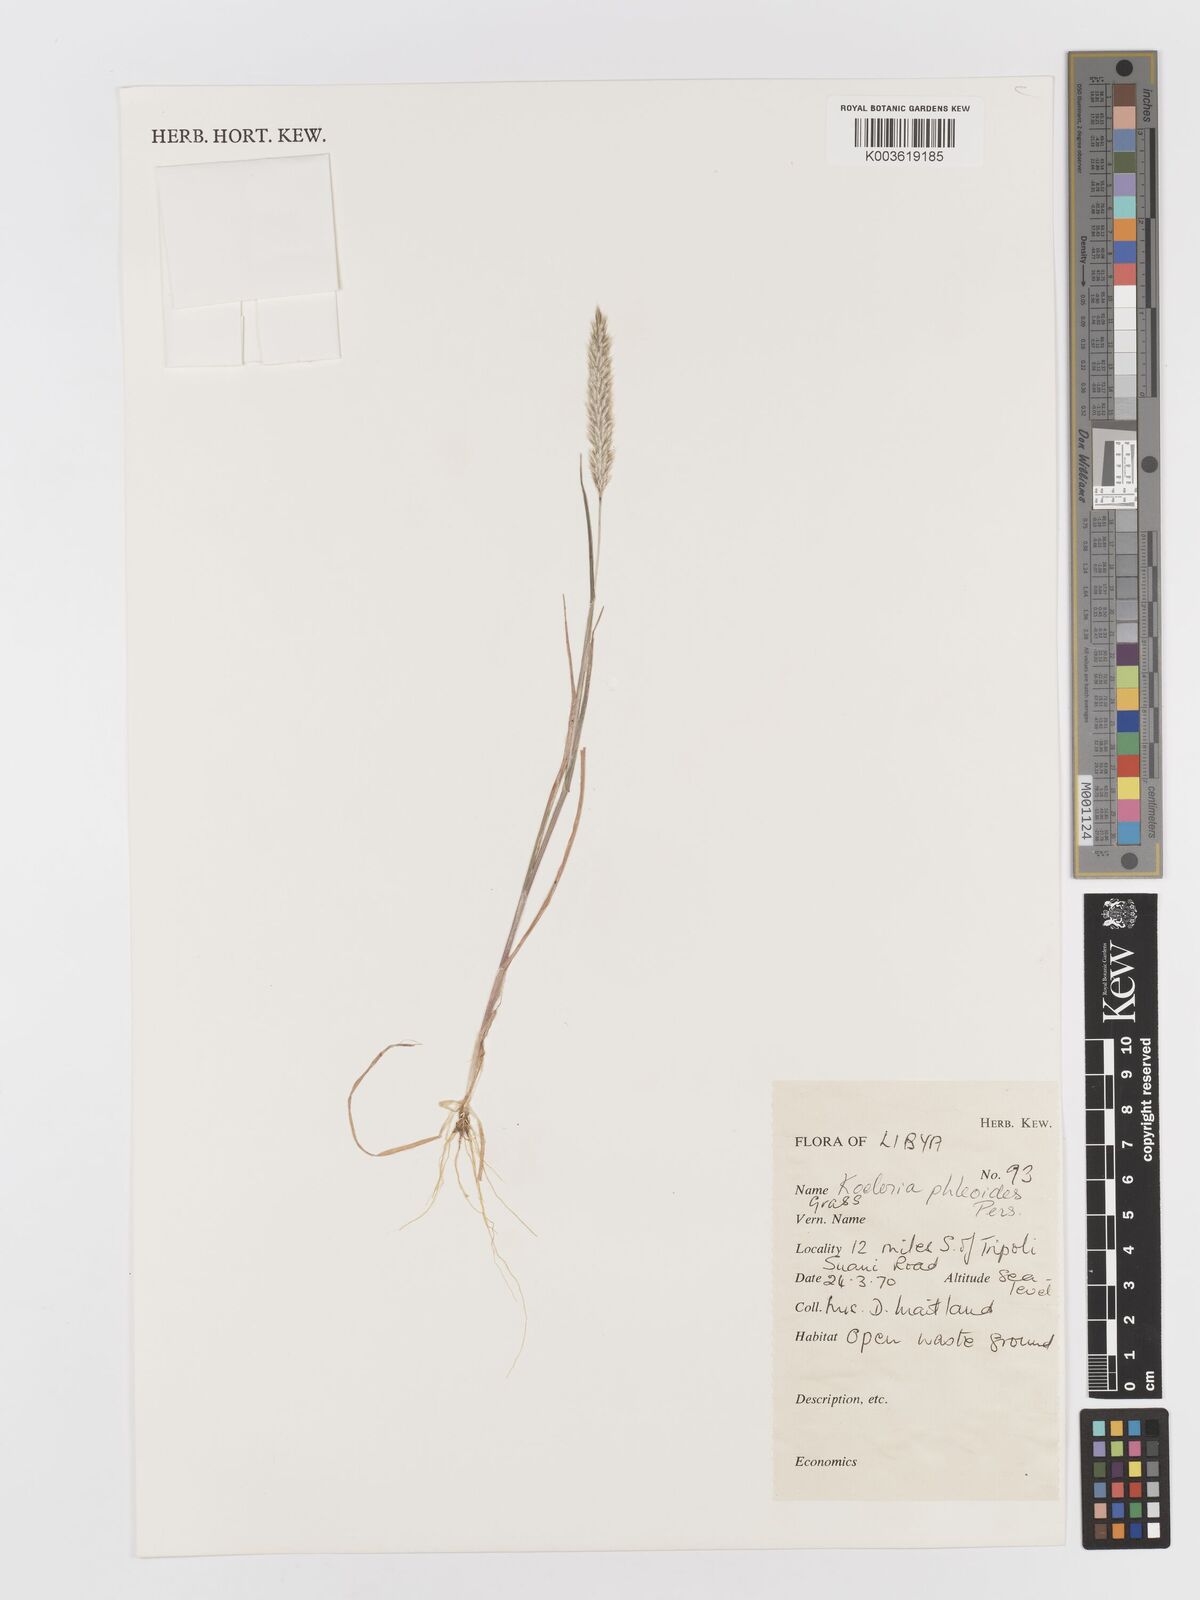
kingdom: Plantae
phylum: Tracheophyta
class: Liliopsida
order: Poales
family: Poaceae
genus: Rostraria
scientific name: Rostraria cristata
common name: Mediterranean hair-grass
